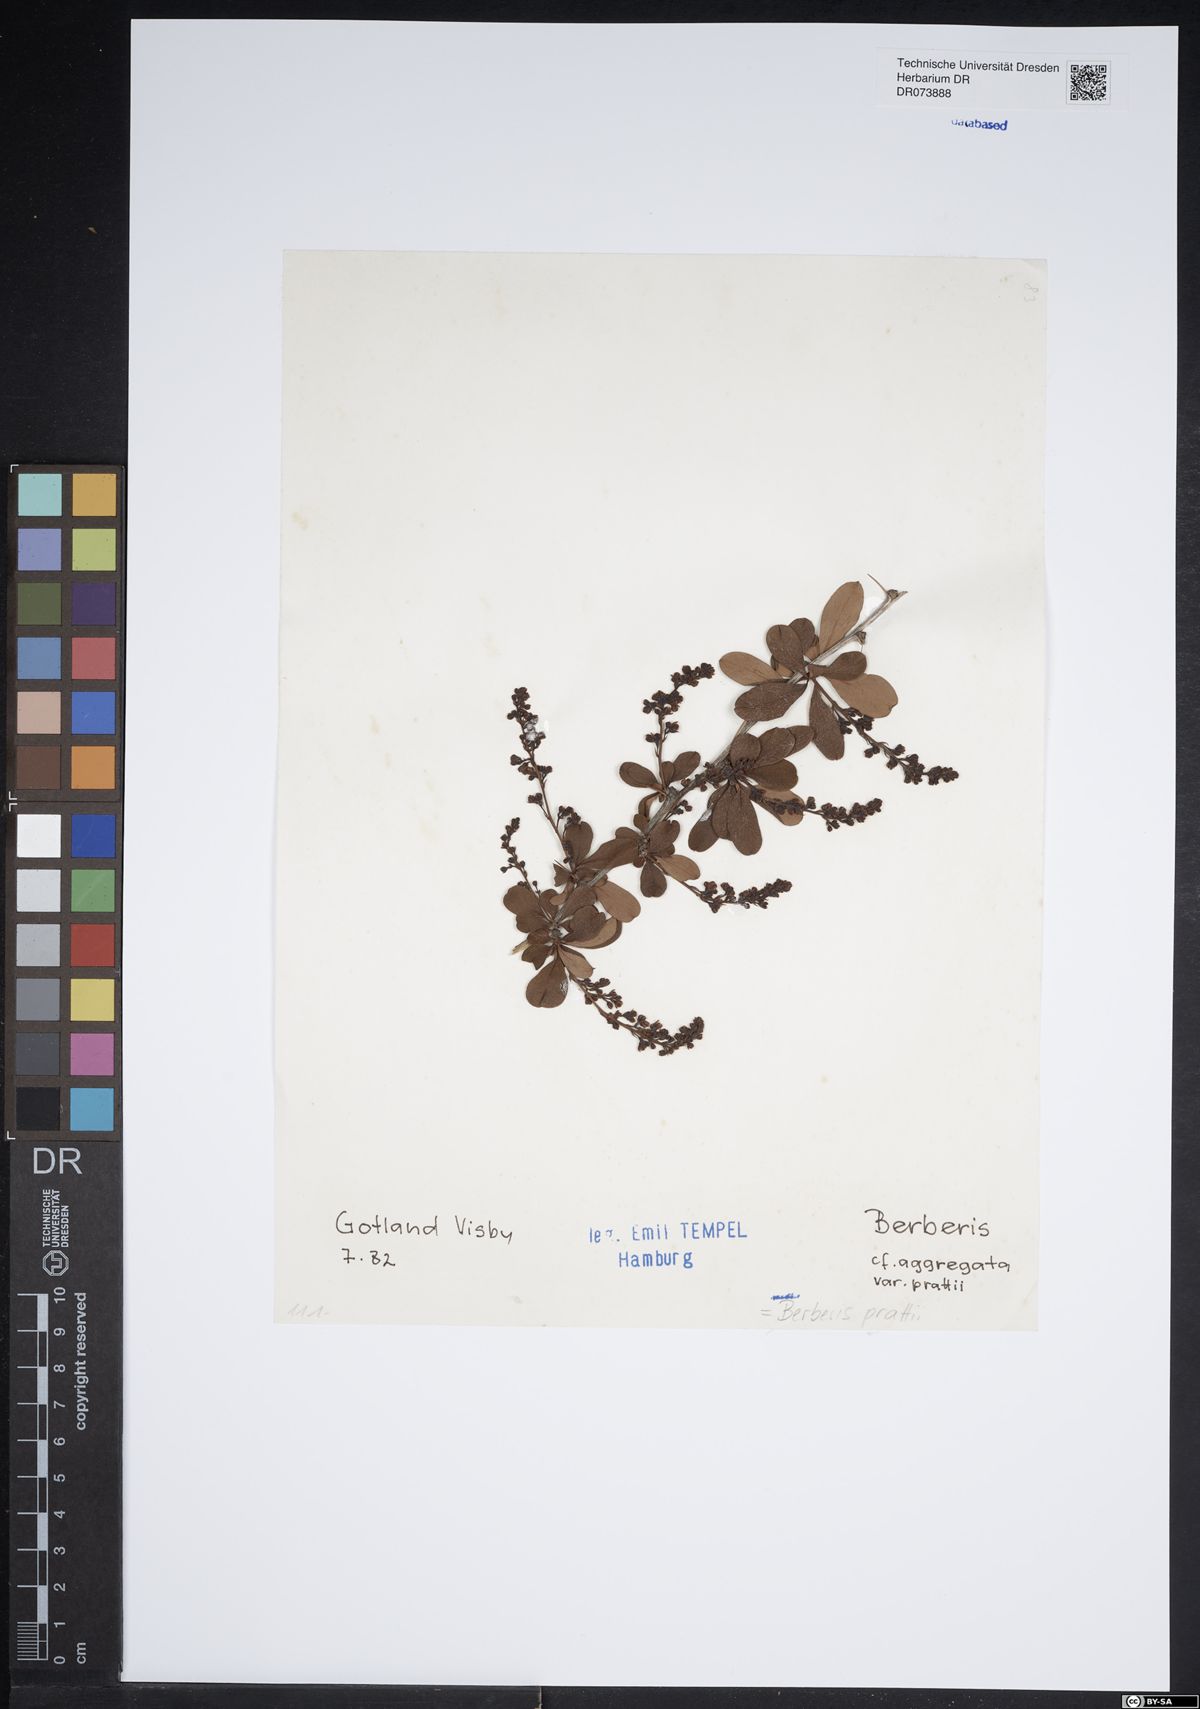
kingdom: Plantae
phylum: Tracheophyta
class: Magnoliopsida
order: Ranunculales
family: Berberidaceae
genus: Berberis
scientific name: Berberis prattii
